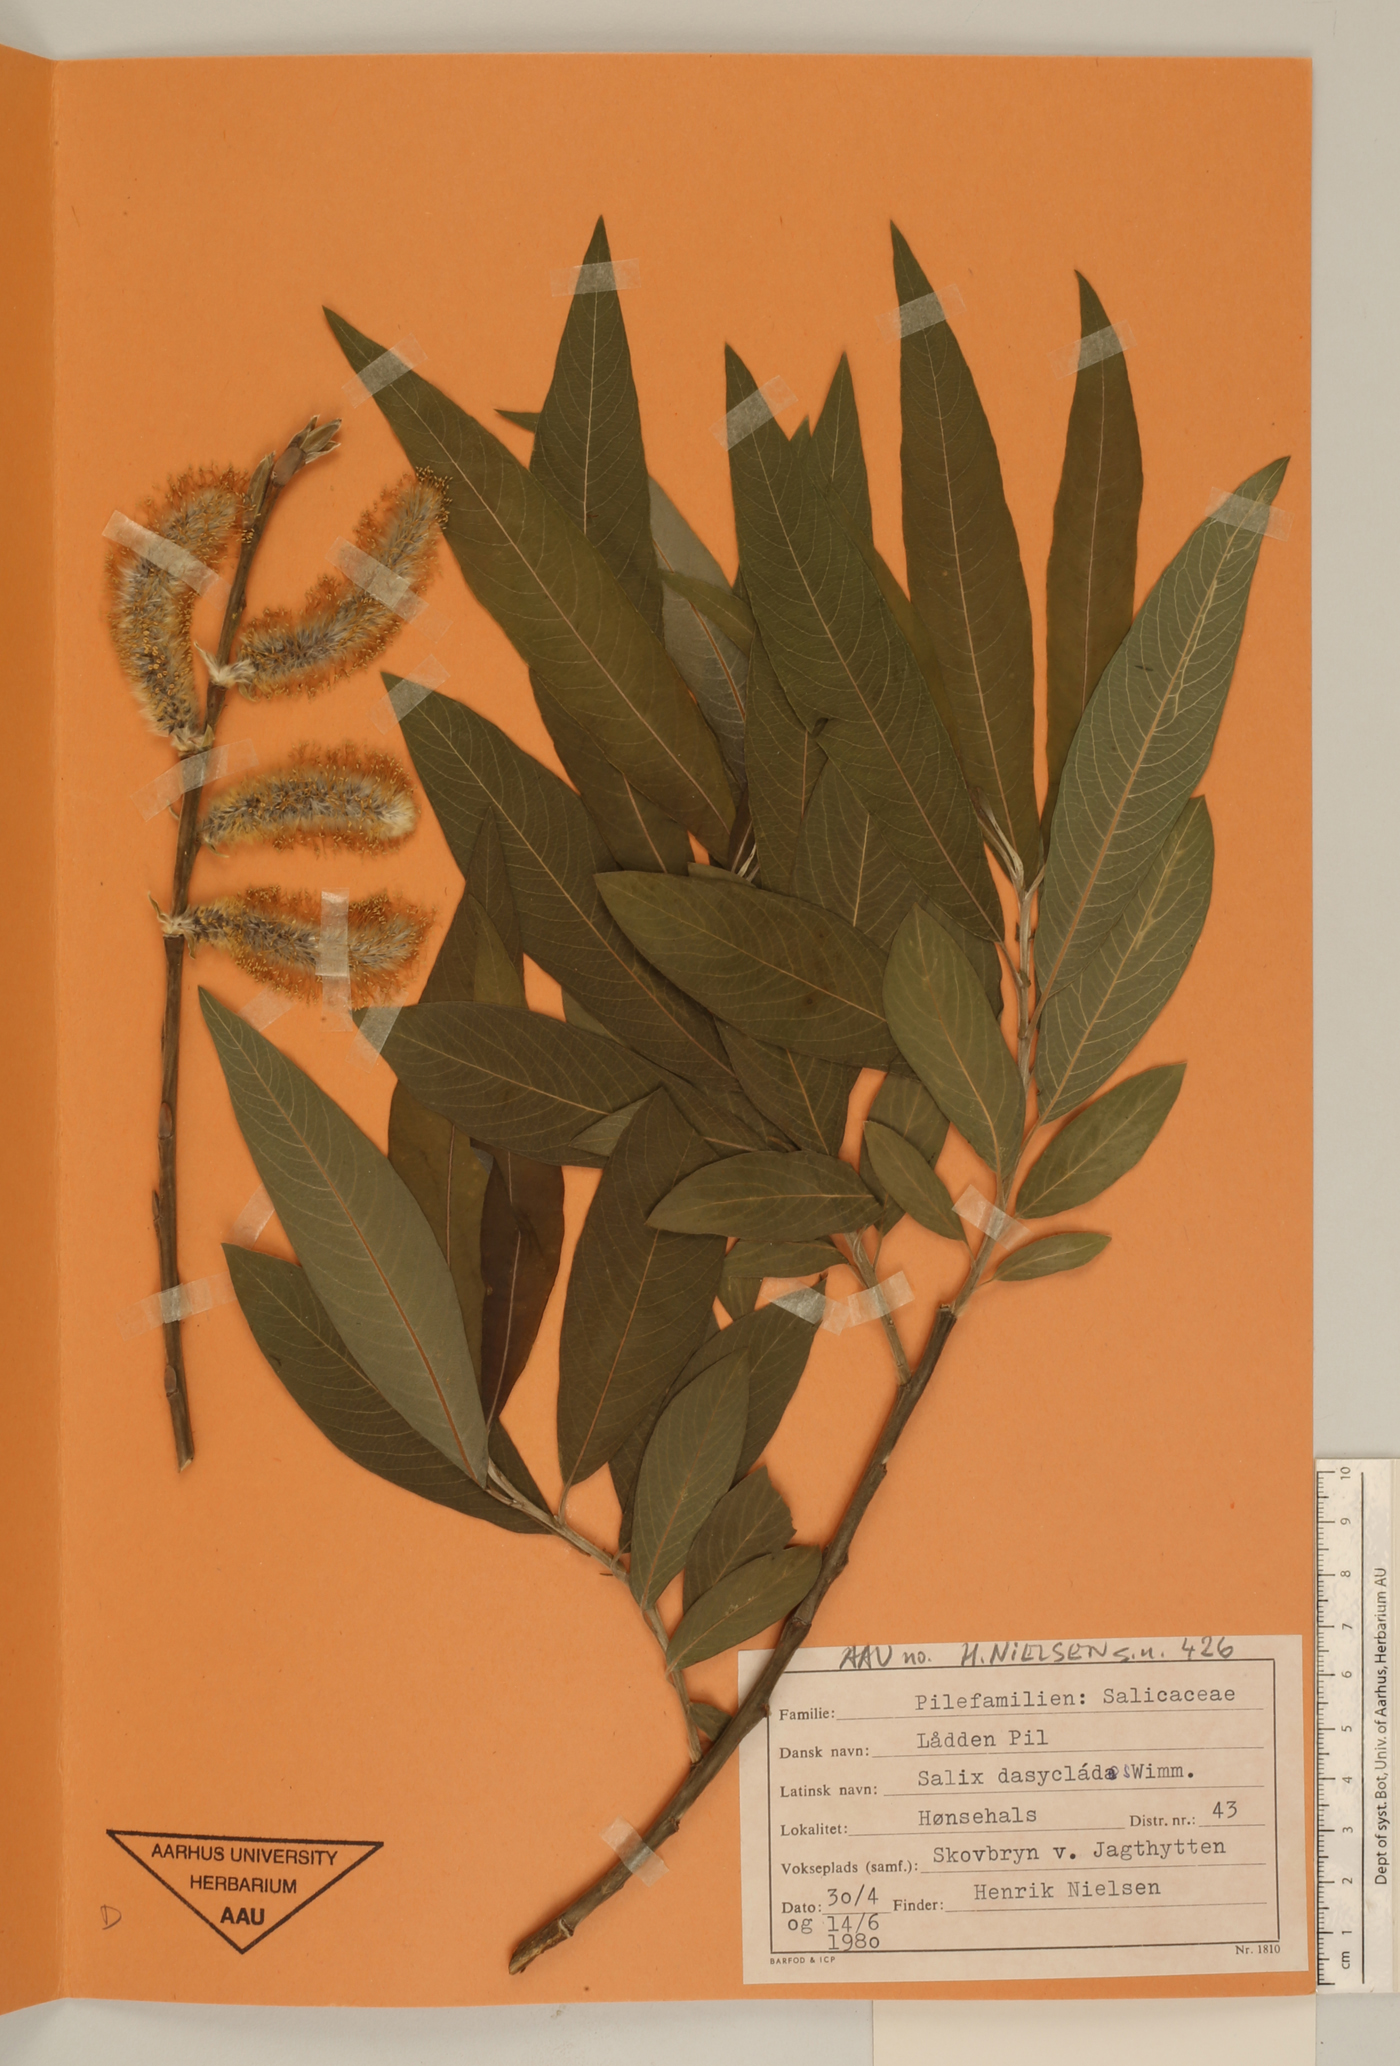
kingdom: Plantae
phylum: Tracheophyta
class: Magnoliopsida
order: Malpighiales
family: Salicaceae
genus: Salix
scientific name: Salix gmelinii
